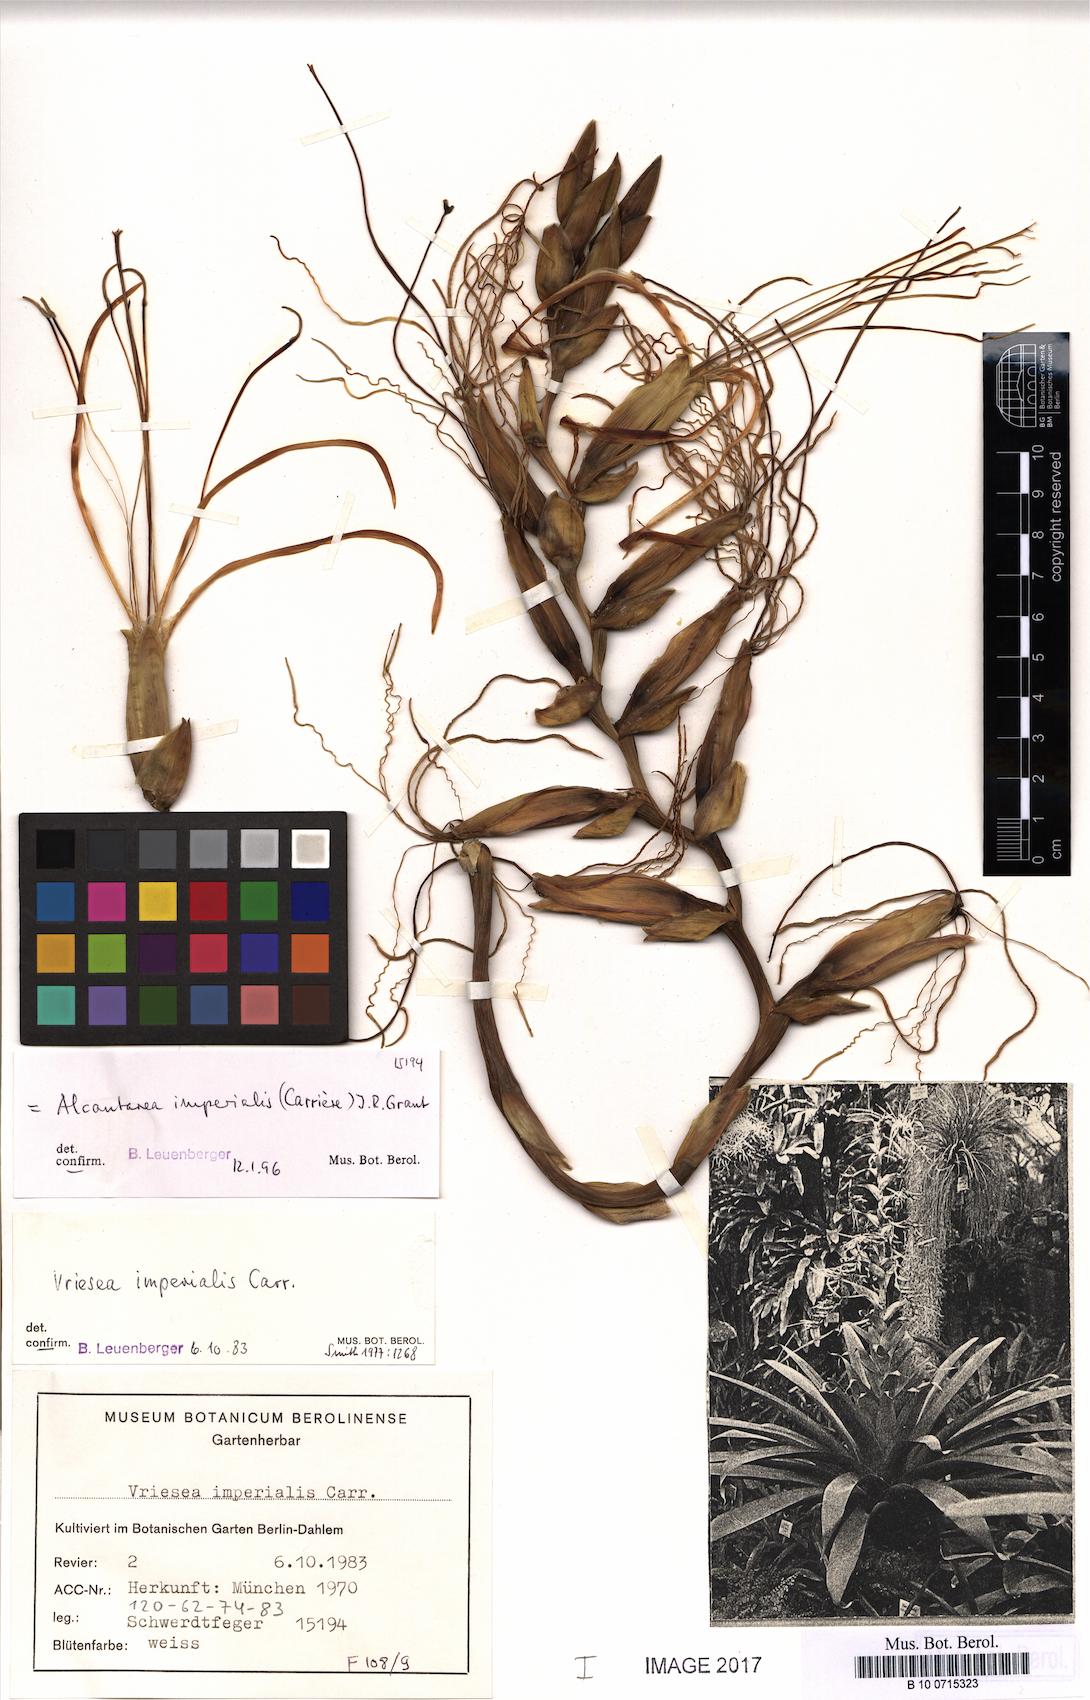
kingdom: Plantae
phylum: Tracheophyta
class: Liliopsida
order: Poales
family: Bromeliaceae
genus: Alcantarea
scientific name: Alcantarea imperialis
